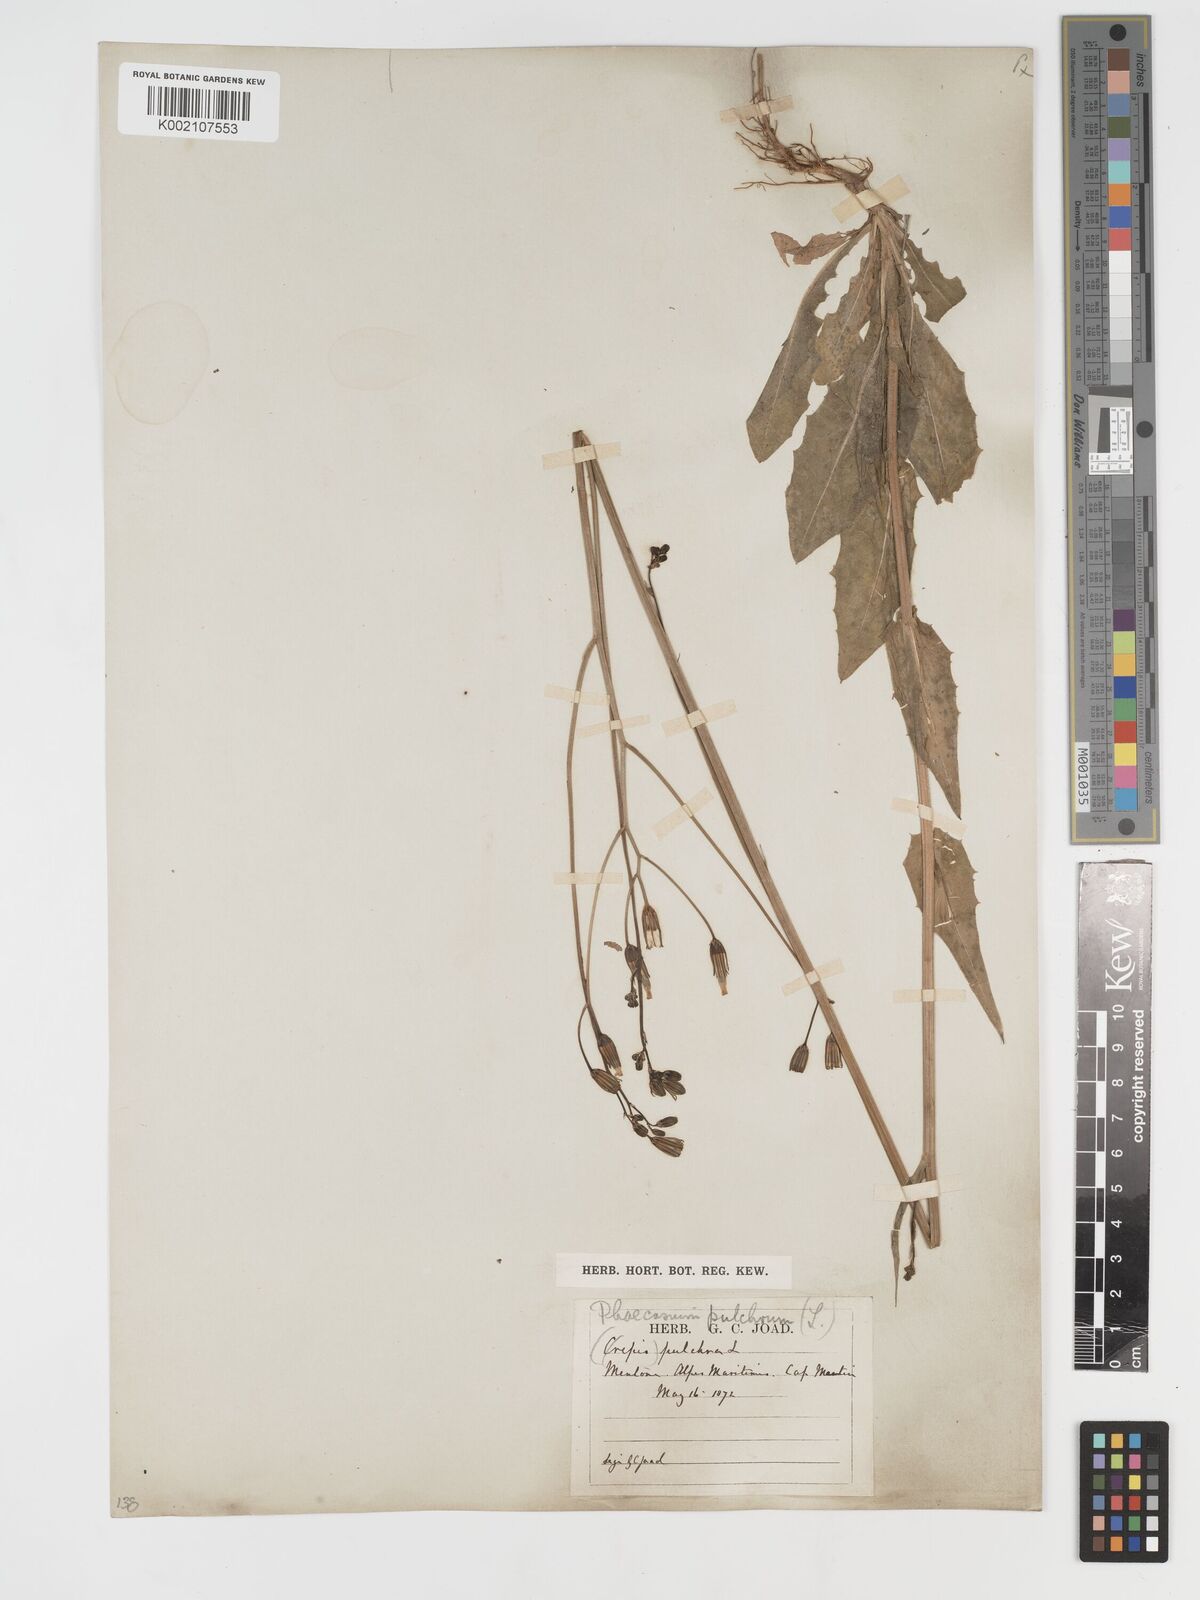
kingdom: Plantae
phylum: Tracheophyta
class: Magnoliopsida
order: Asterales
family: Asteraceae
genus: Crepis
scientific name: Crepis pulchra
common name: Hawk's-beard
